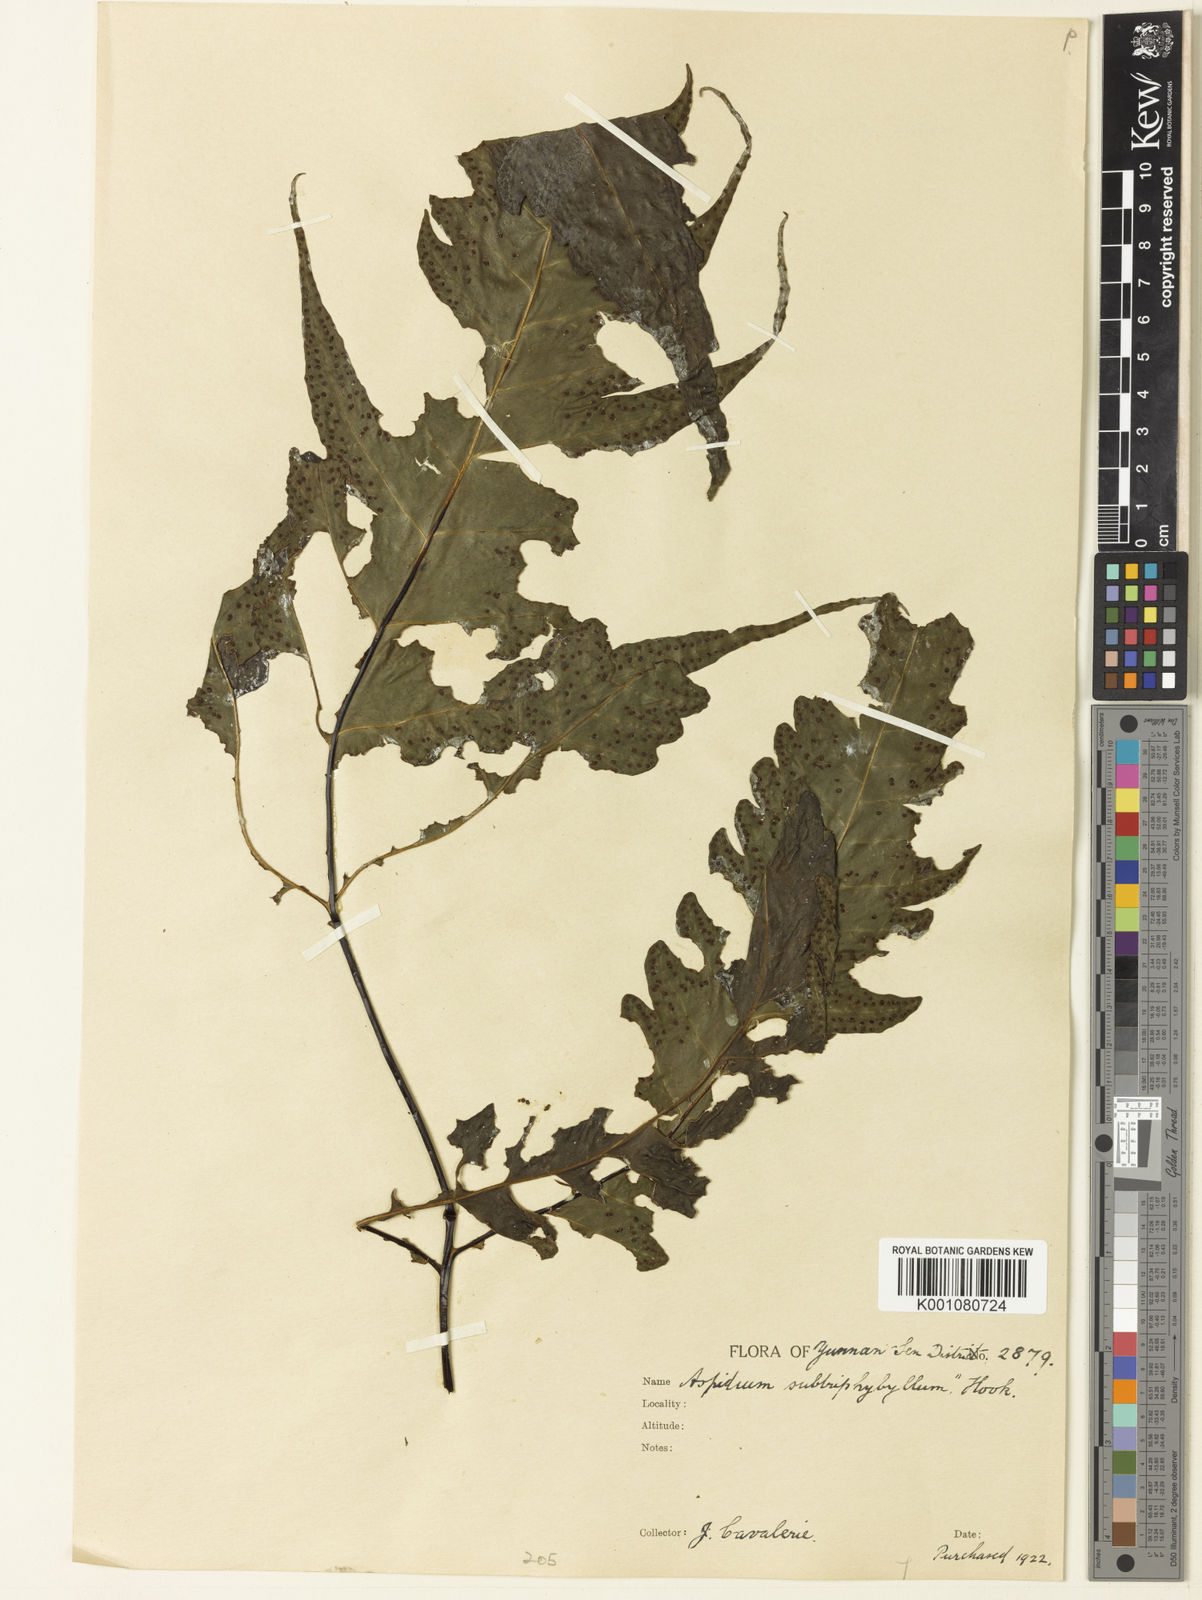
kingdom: Plantae
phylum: Tracheophyta
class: Polypodiopsida
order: Polypodiales
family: Tectariaceae
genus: Tectaria
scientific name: Tectaria simonsii
